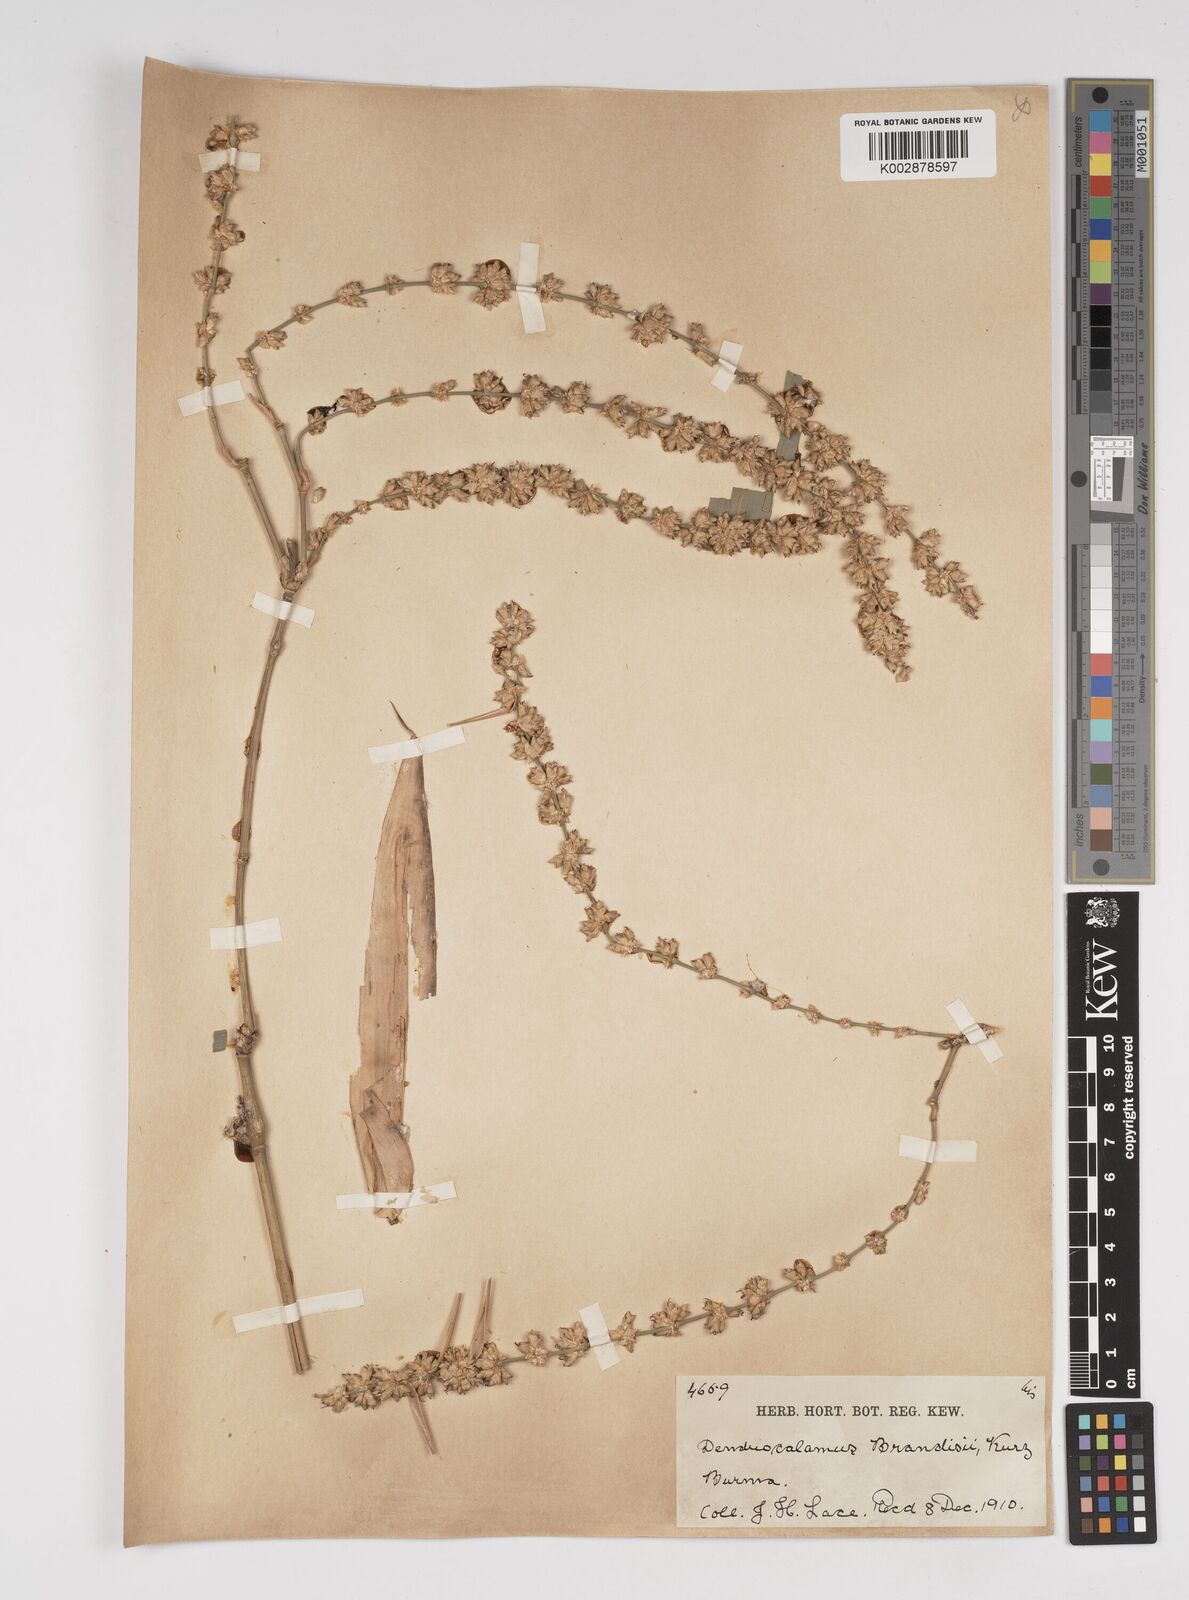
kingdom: Plantae
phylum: Tracheophyta
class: Liliopsida
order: Poales
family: Poaceae
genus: Dendrocalamus
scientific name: Dendrocalamus brandisii
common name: Velvetleaf bamboo
